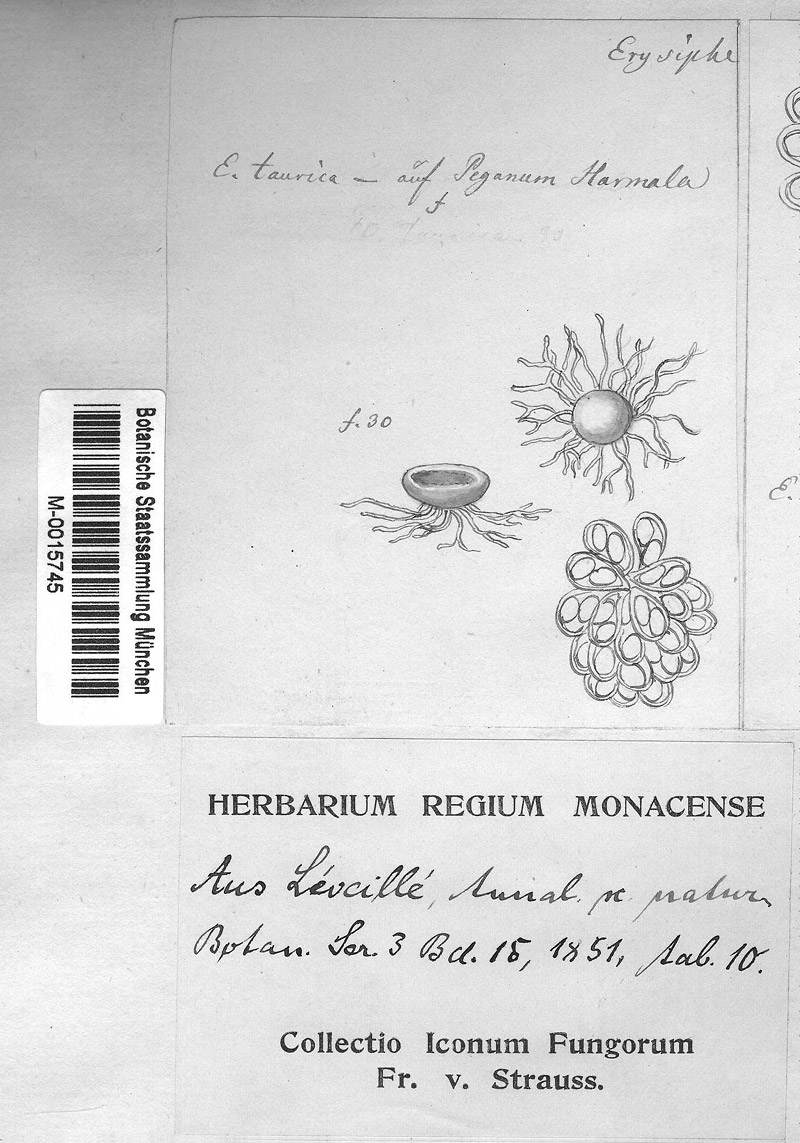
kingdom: Plantae
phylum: Tracheophyta
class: Magnoliopsida
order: Sapindales
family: Tetradiclidaceae
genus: Peganum
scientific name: Peganum harmala
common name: Harmal peganum
